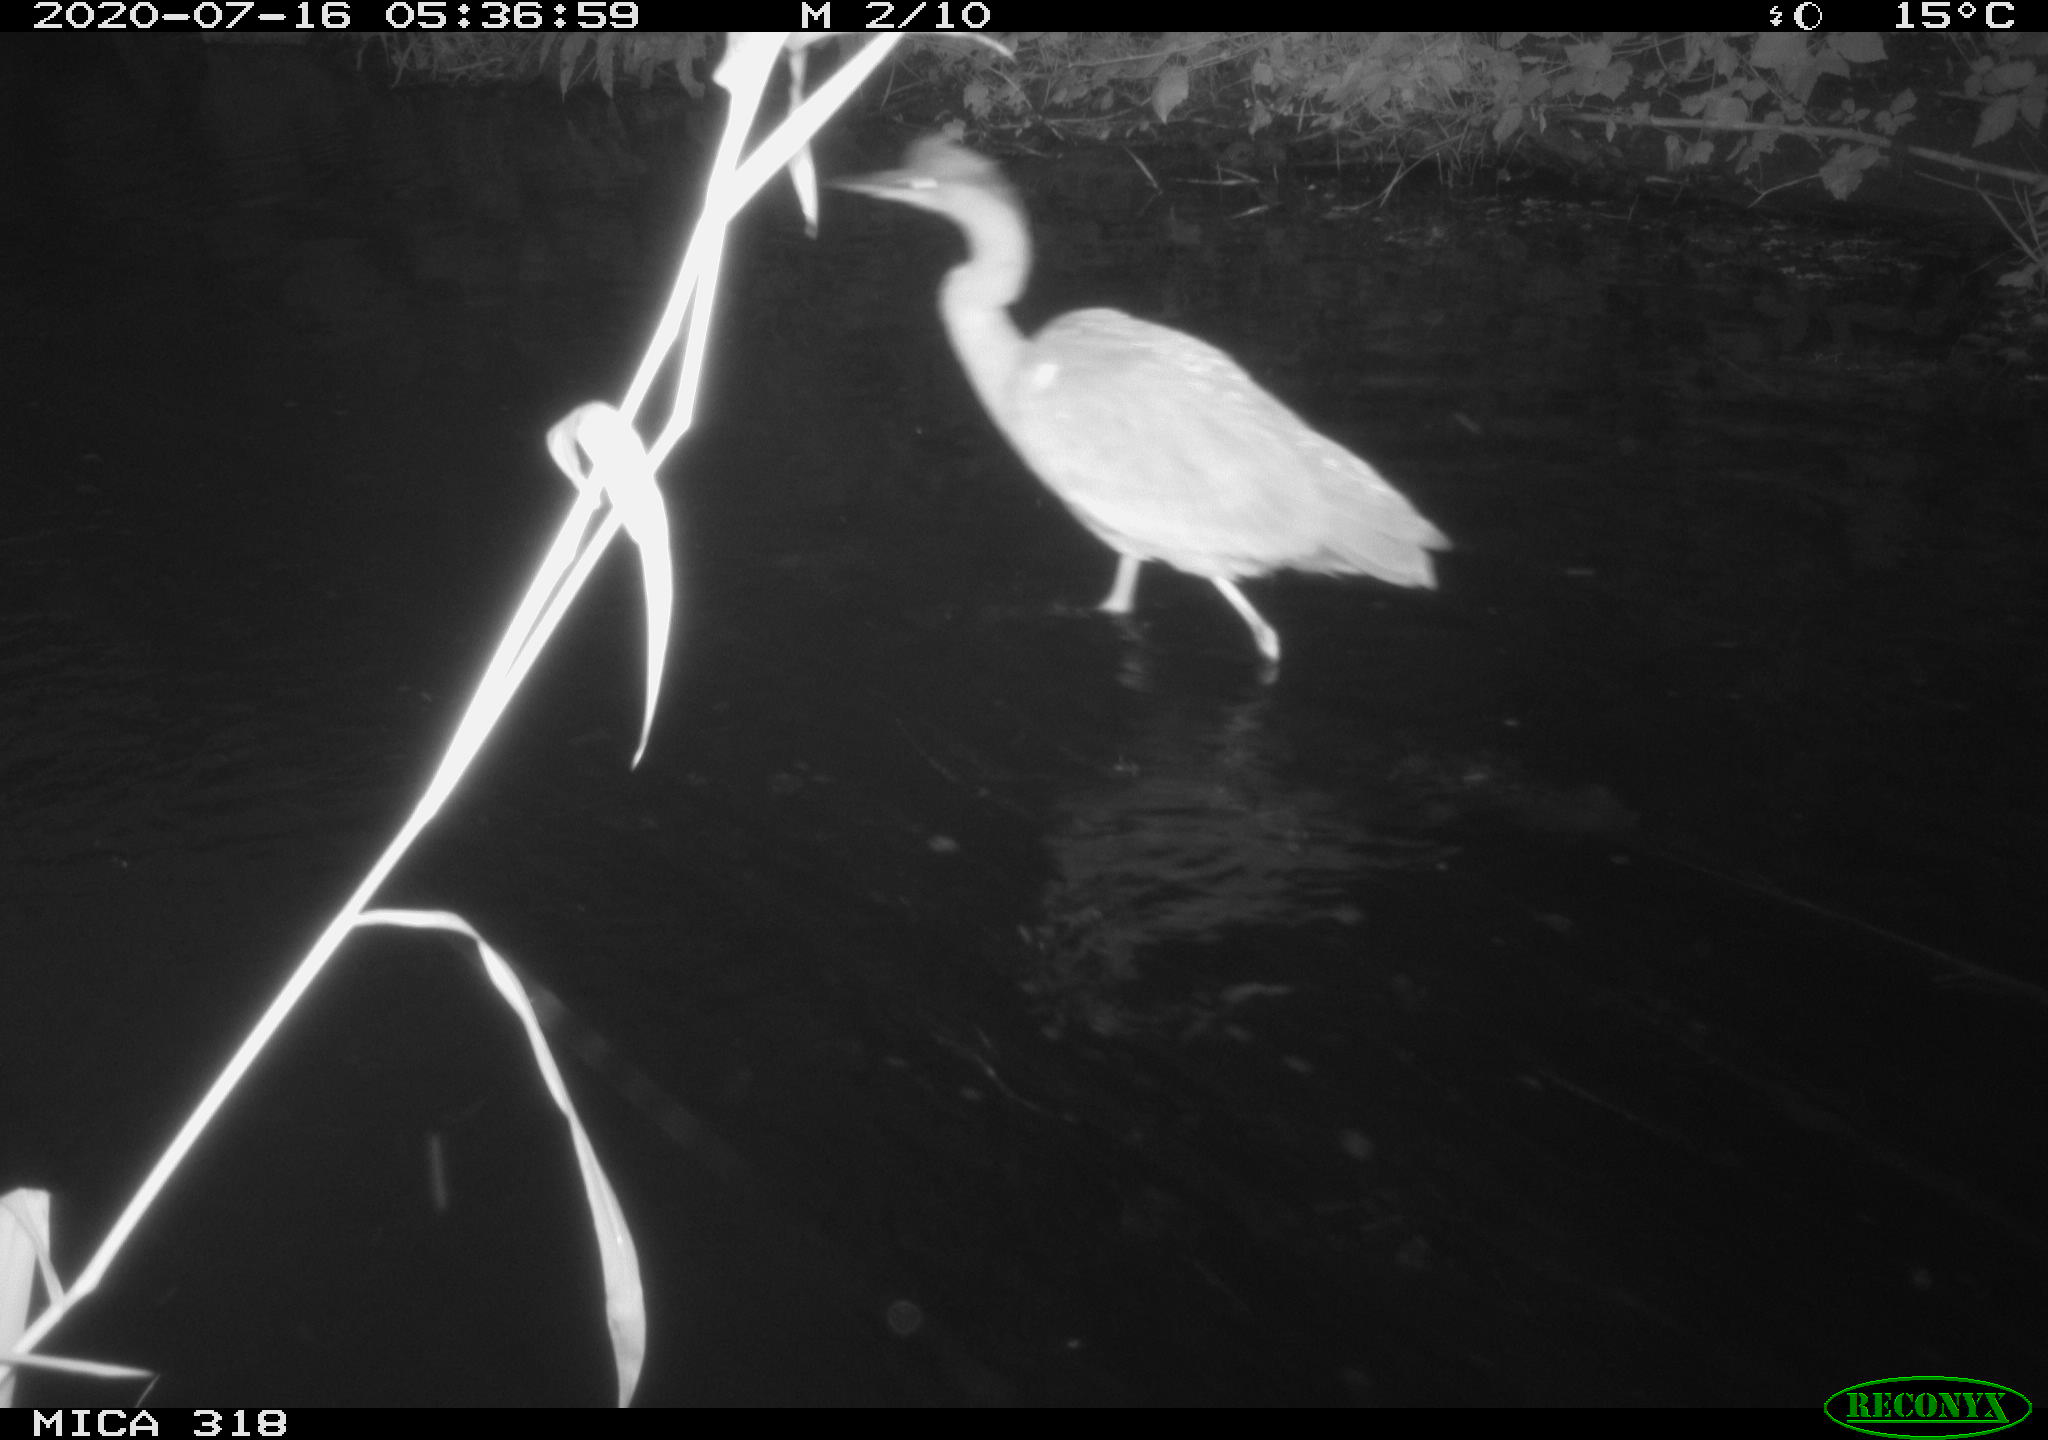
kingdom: Animalia
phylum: Chordata
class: Aves
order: Pelecaniformes
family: Ardeidae
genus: Ardea
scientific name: Ardea cinerea
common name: Grey heron
